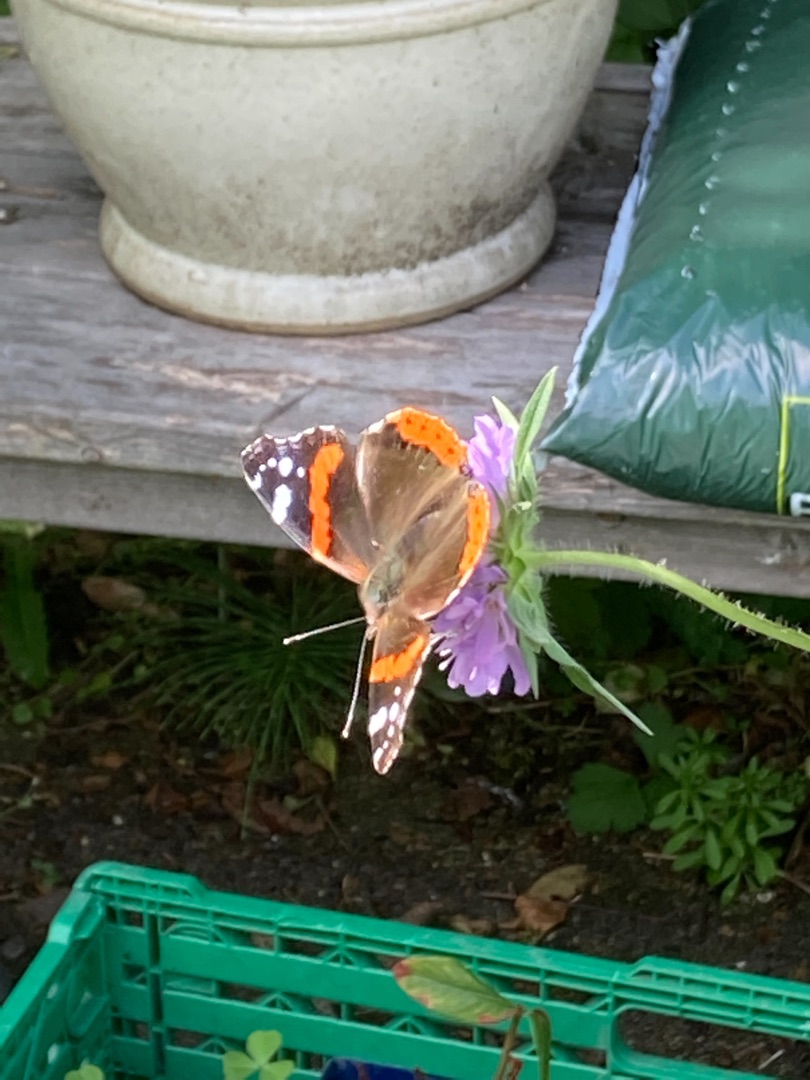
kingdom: Animalia
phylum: Arthropoda
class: Insecta
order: Lepidoptera
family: Nymphalidae
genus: Vanessa
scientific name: Vanessa atalanta
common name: Admiral
